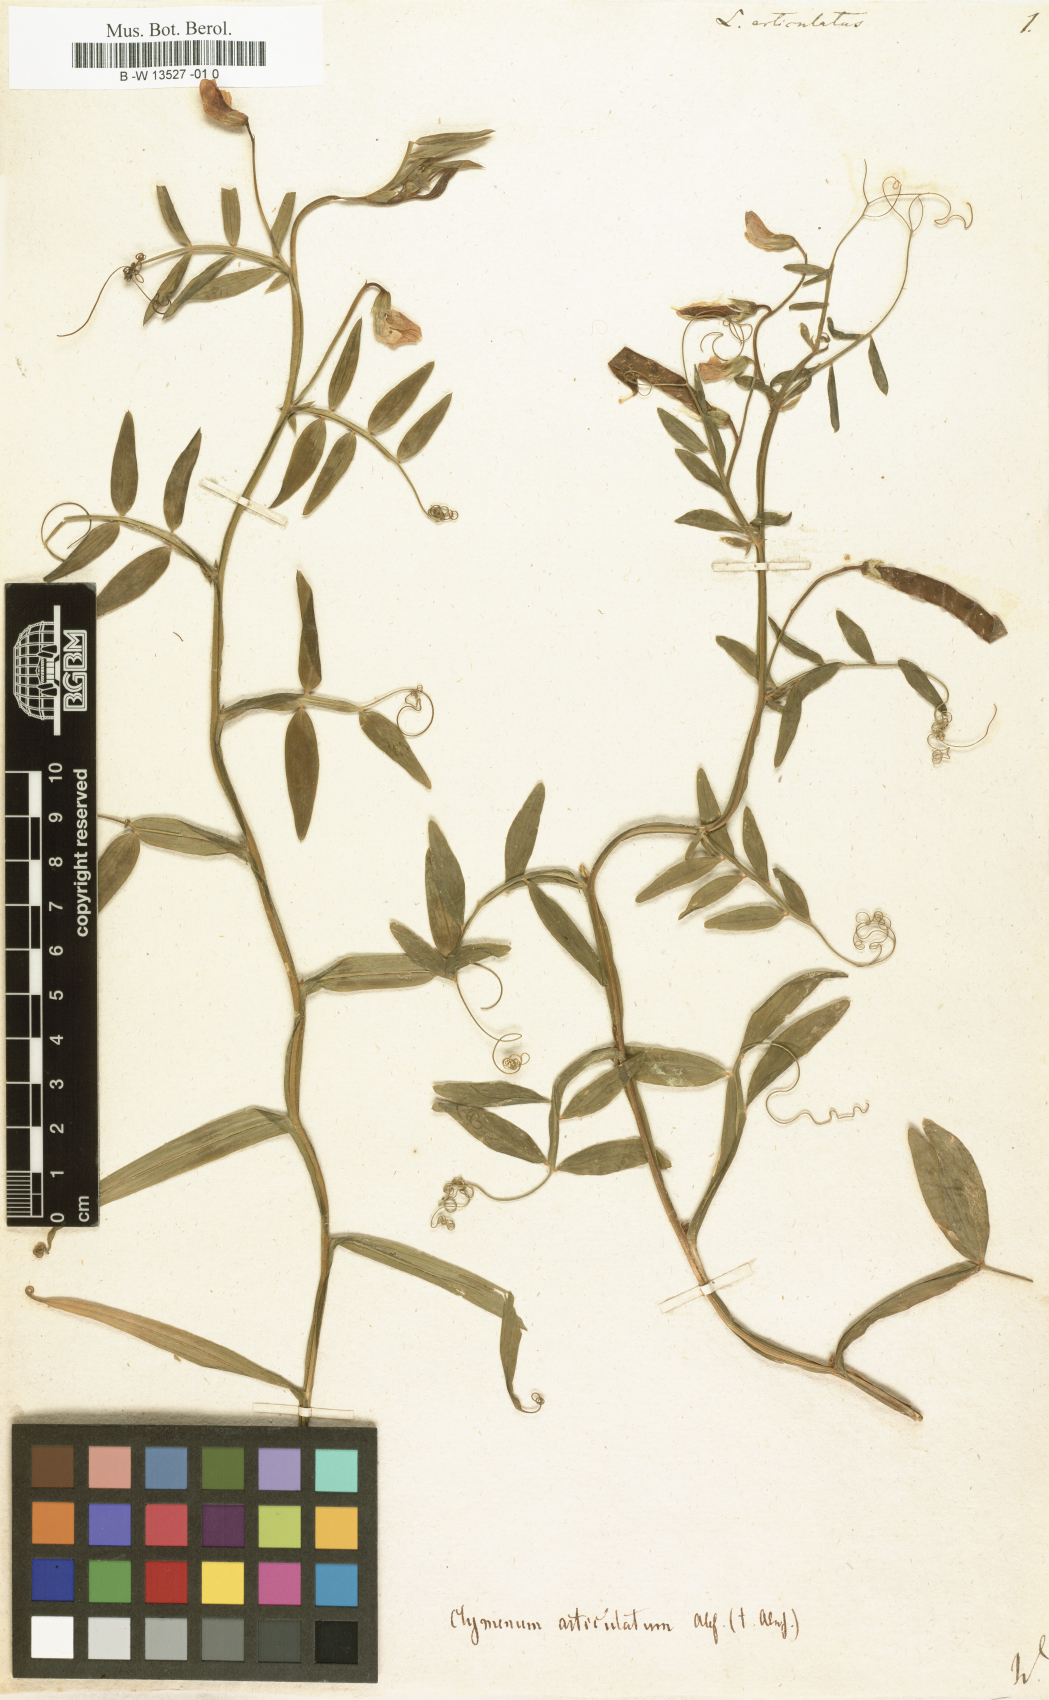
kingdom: Plantae
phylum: Tracheophyta
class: Magnoliopsida
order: Fabales
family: Fabaceae
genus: Lathyrus
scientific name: Lathyrus articulatus
